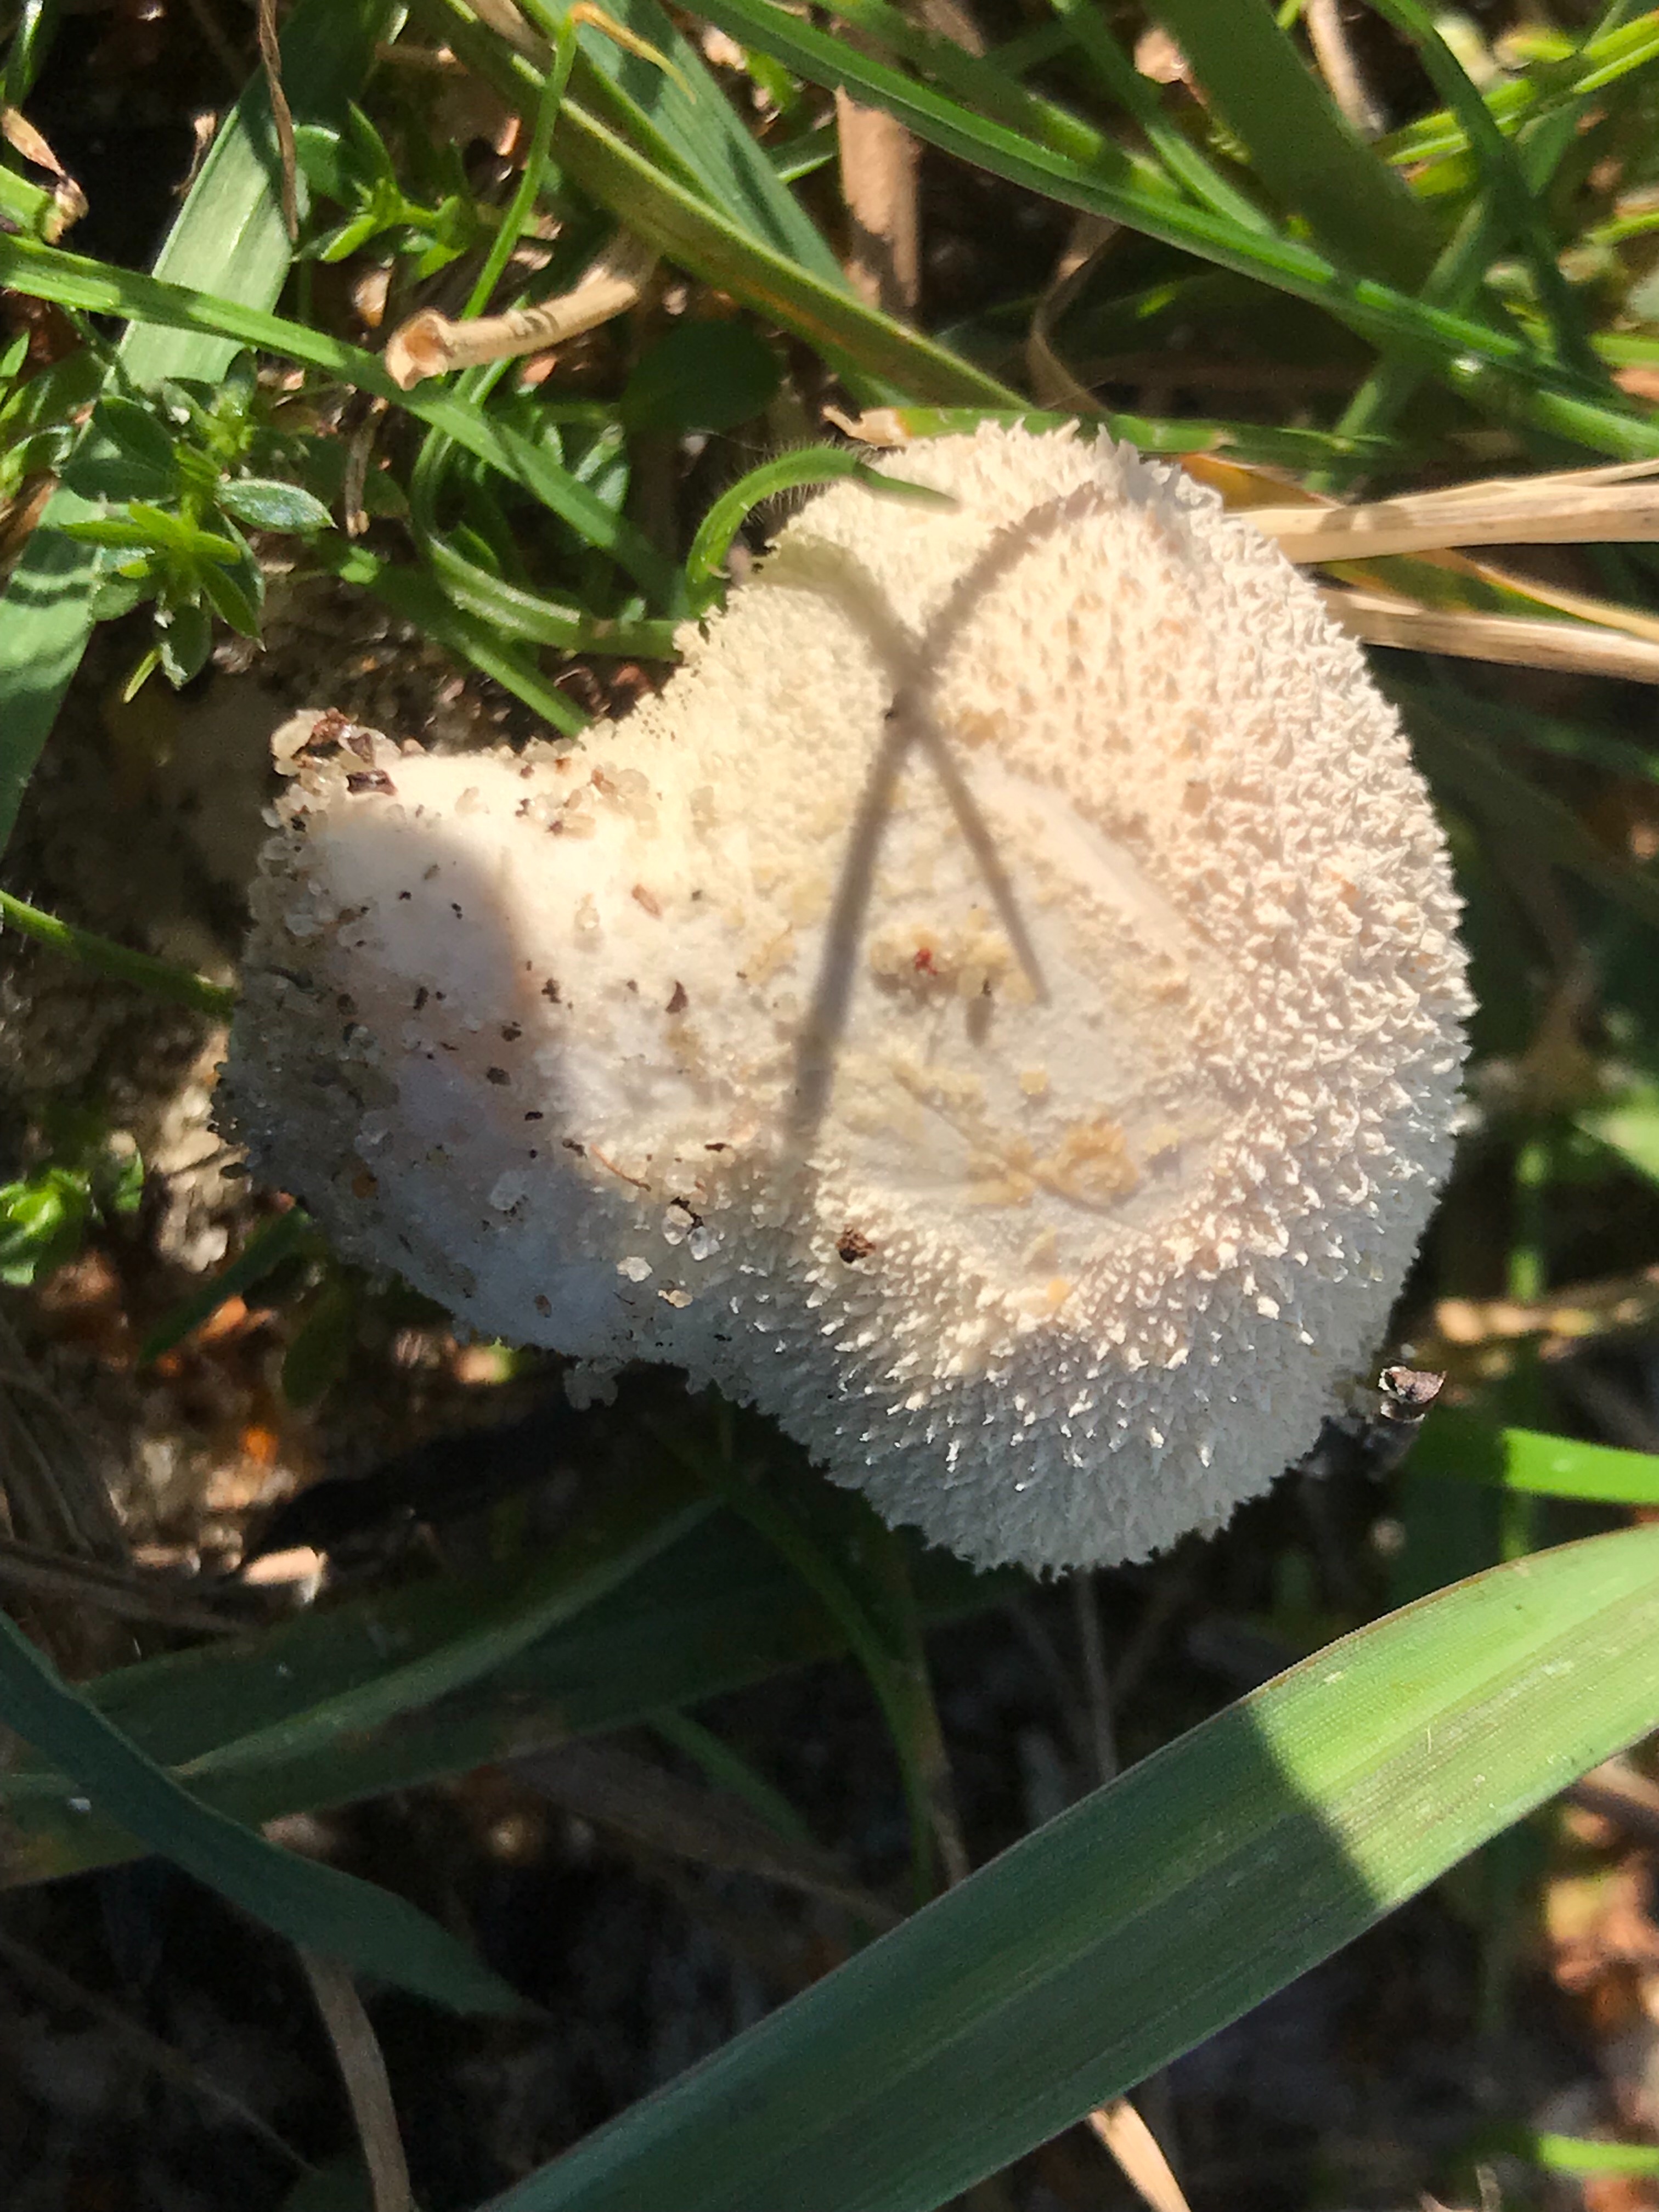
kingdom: Fungi
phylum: Basidiomycota
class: Agaricomycetes
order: Agaricales
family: Lycoperdaceae
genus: Lycoperdon
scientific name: Lycoperdon pratense
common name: flad støvbold
